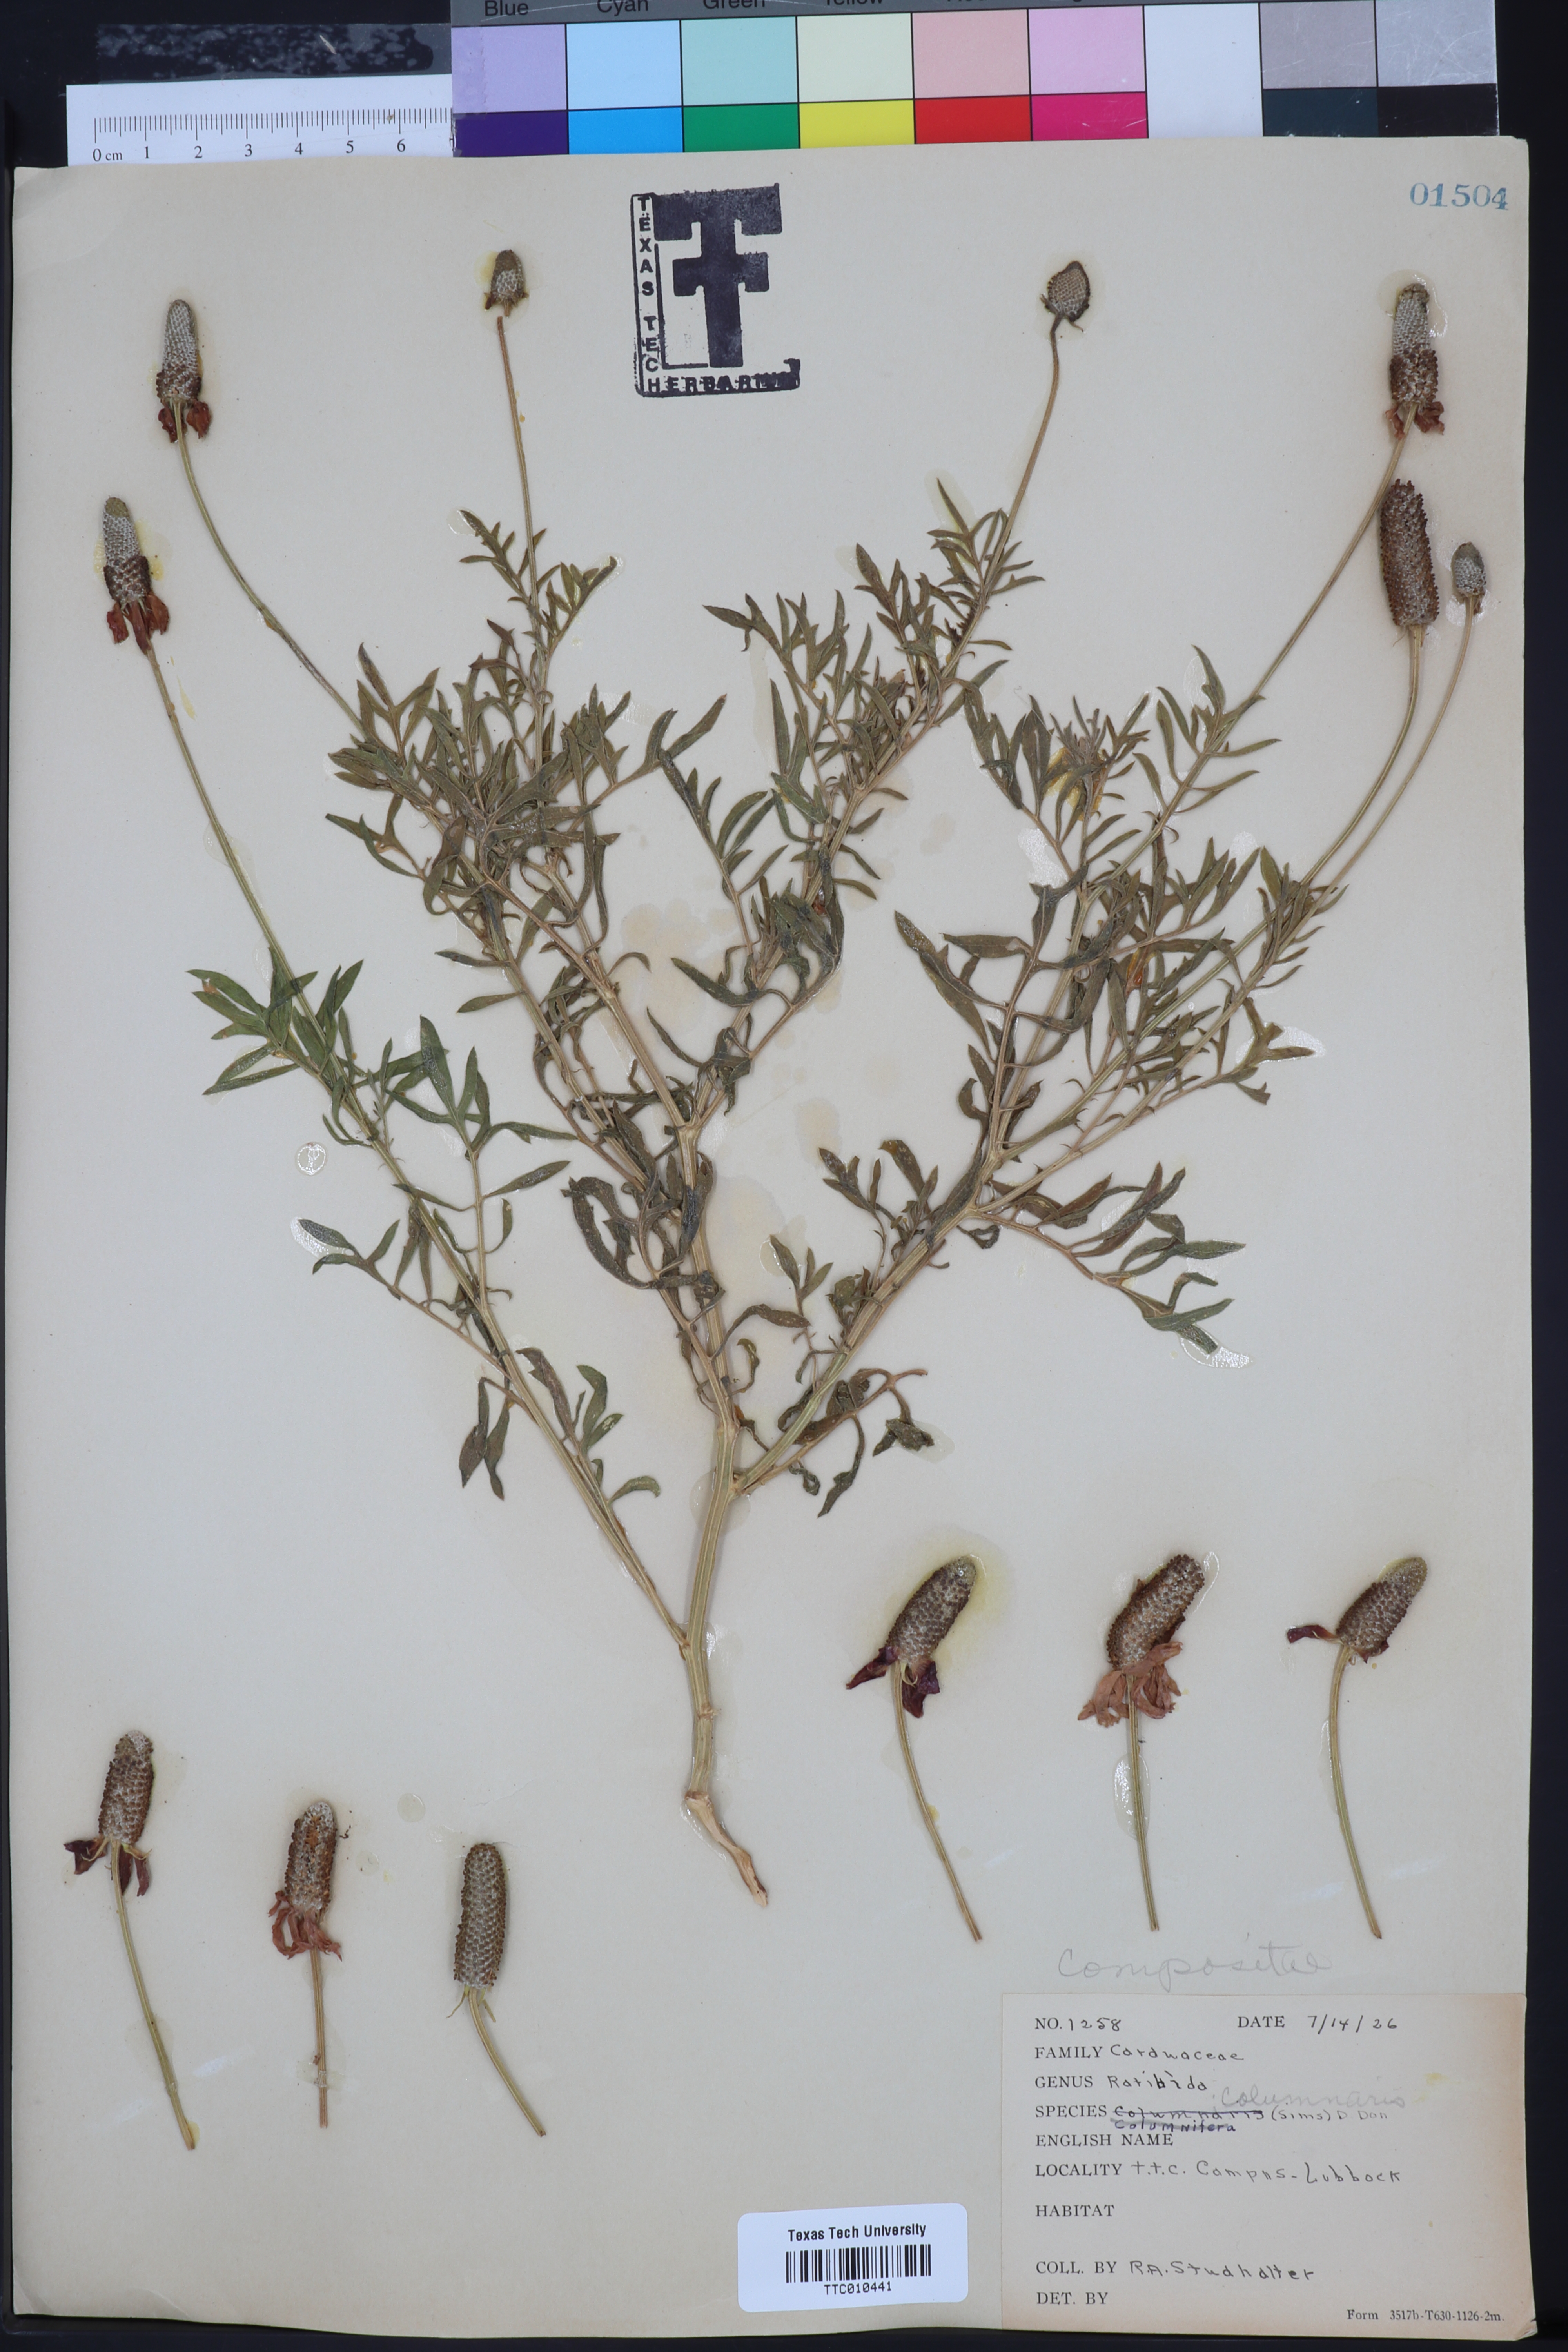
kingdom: Plantae
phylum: Tracheophyta
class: Magnoliopsida
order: Asterales
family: Asteraceae
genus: Ratibida
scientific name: Ratibida columnifera
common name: Prairie coneflower
